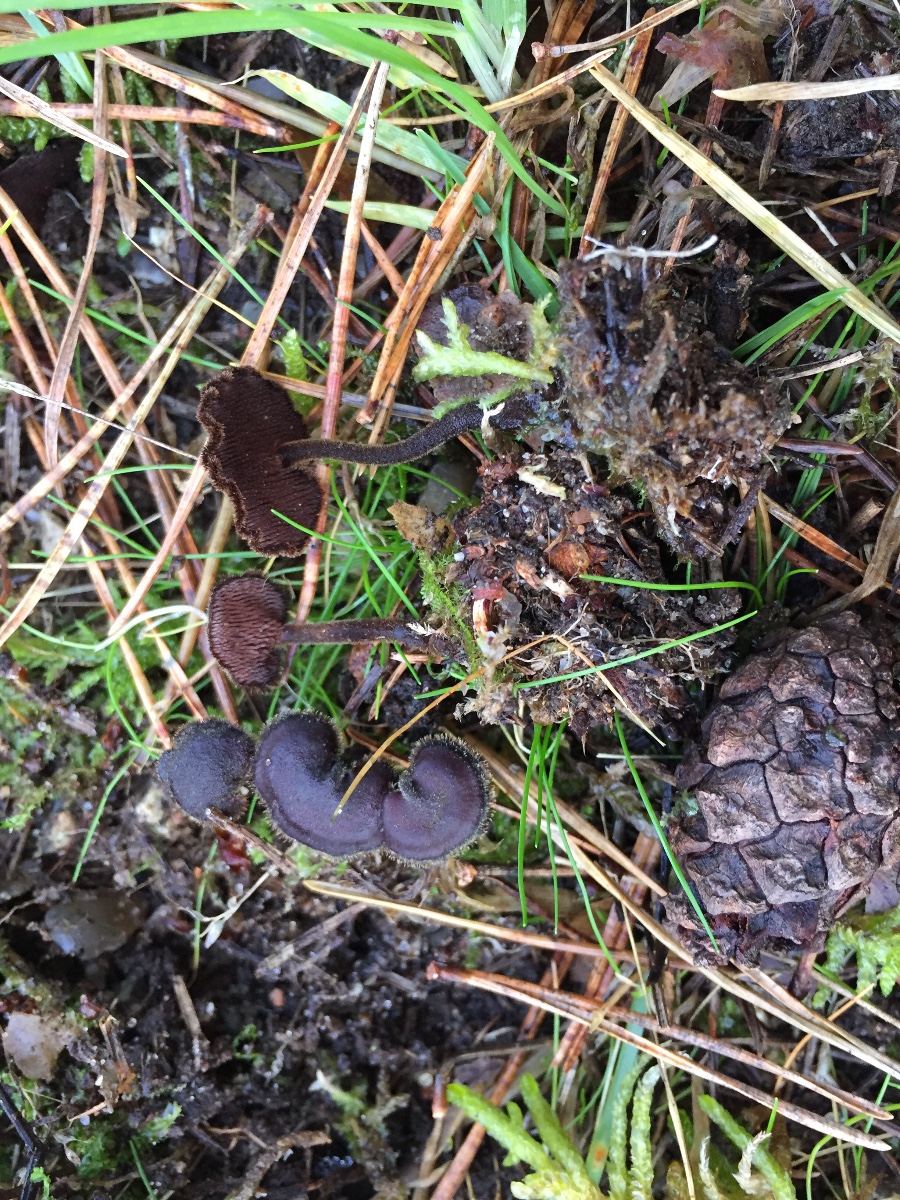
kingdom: Fungi
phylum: Basidiomycota
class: Agaricomycetes
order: Russulales
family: Auriscalpiaceae
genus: Auriscalpium
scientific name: Auriscalpium vulgare
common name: koglepigsvamp
